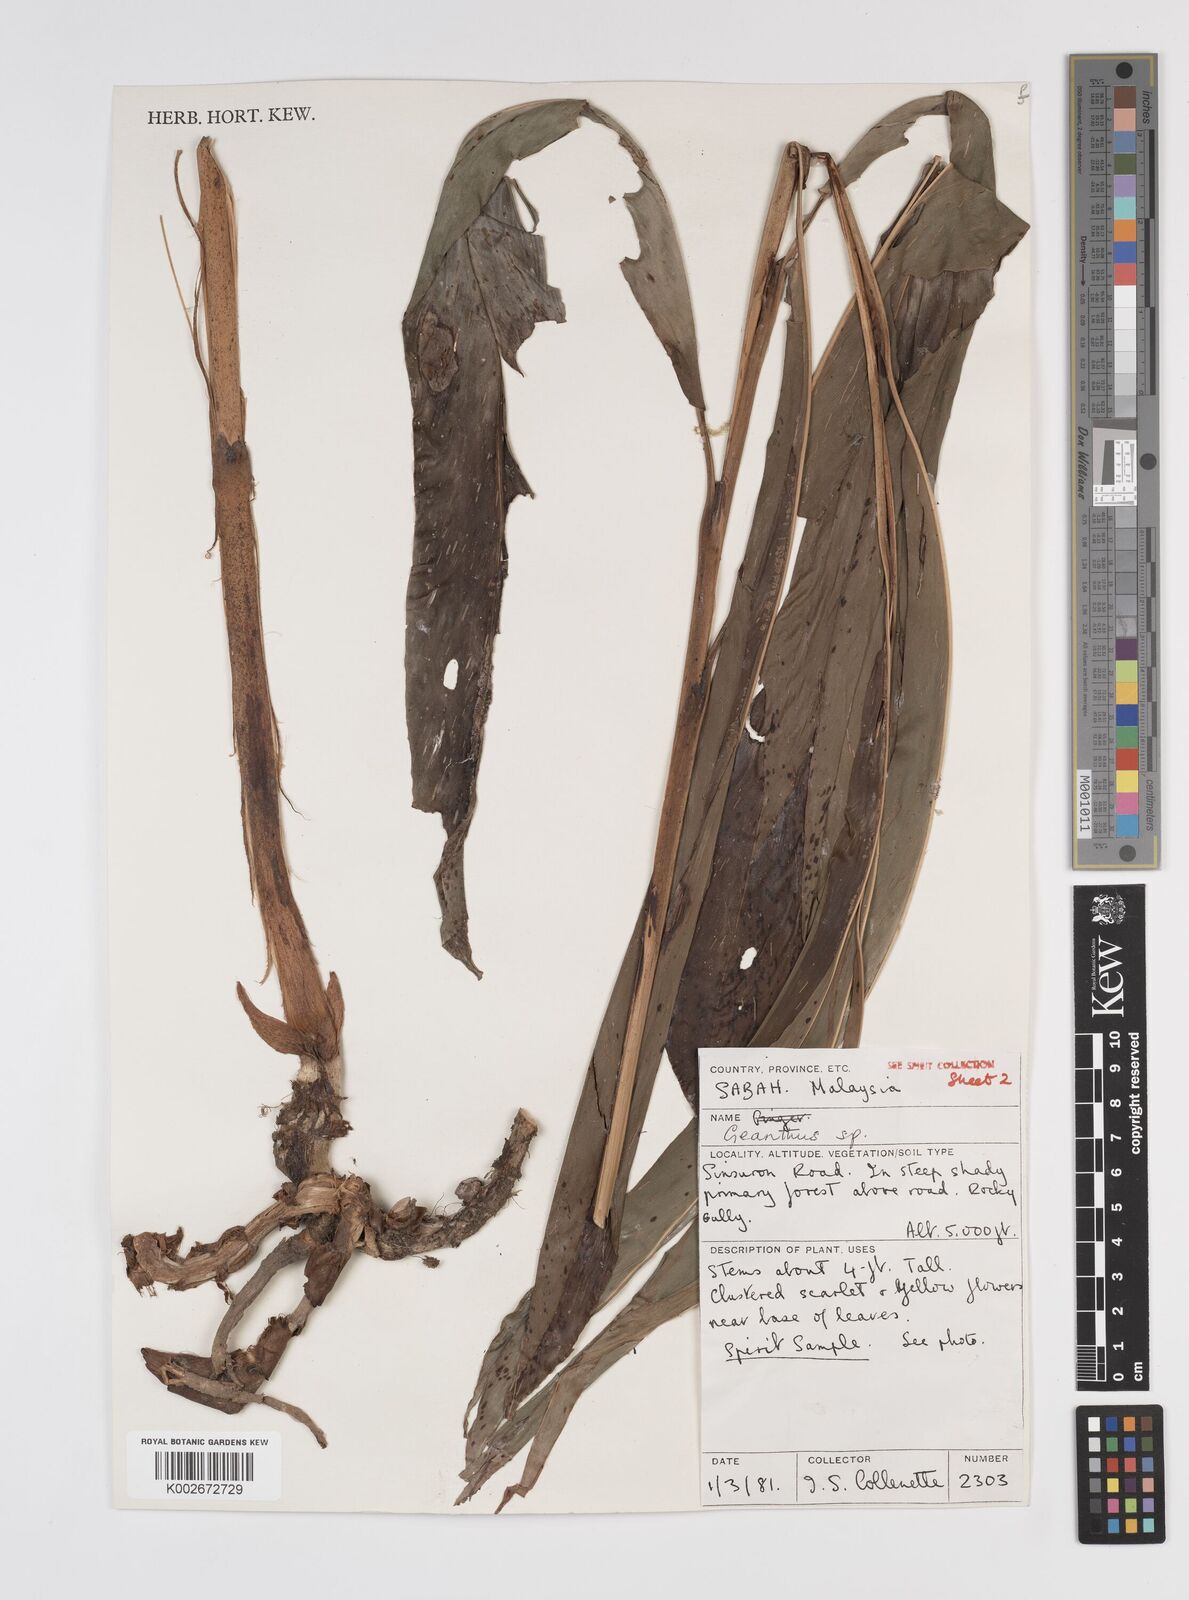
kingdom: Plantae
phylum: Tracheophyta
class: Liliopsida
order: Zingiberales
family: Zingiberaceae
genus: Etlingera
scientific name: Etlingera pubescens
